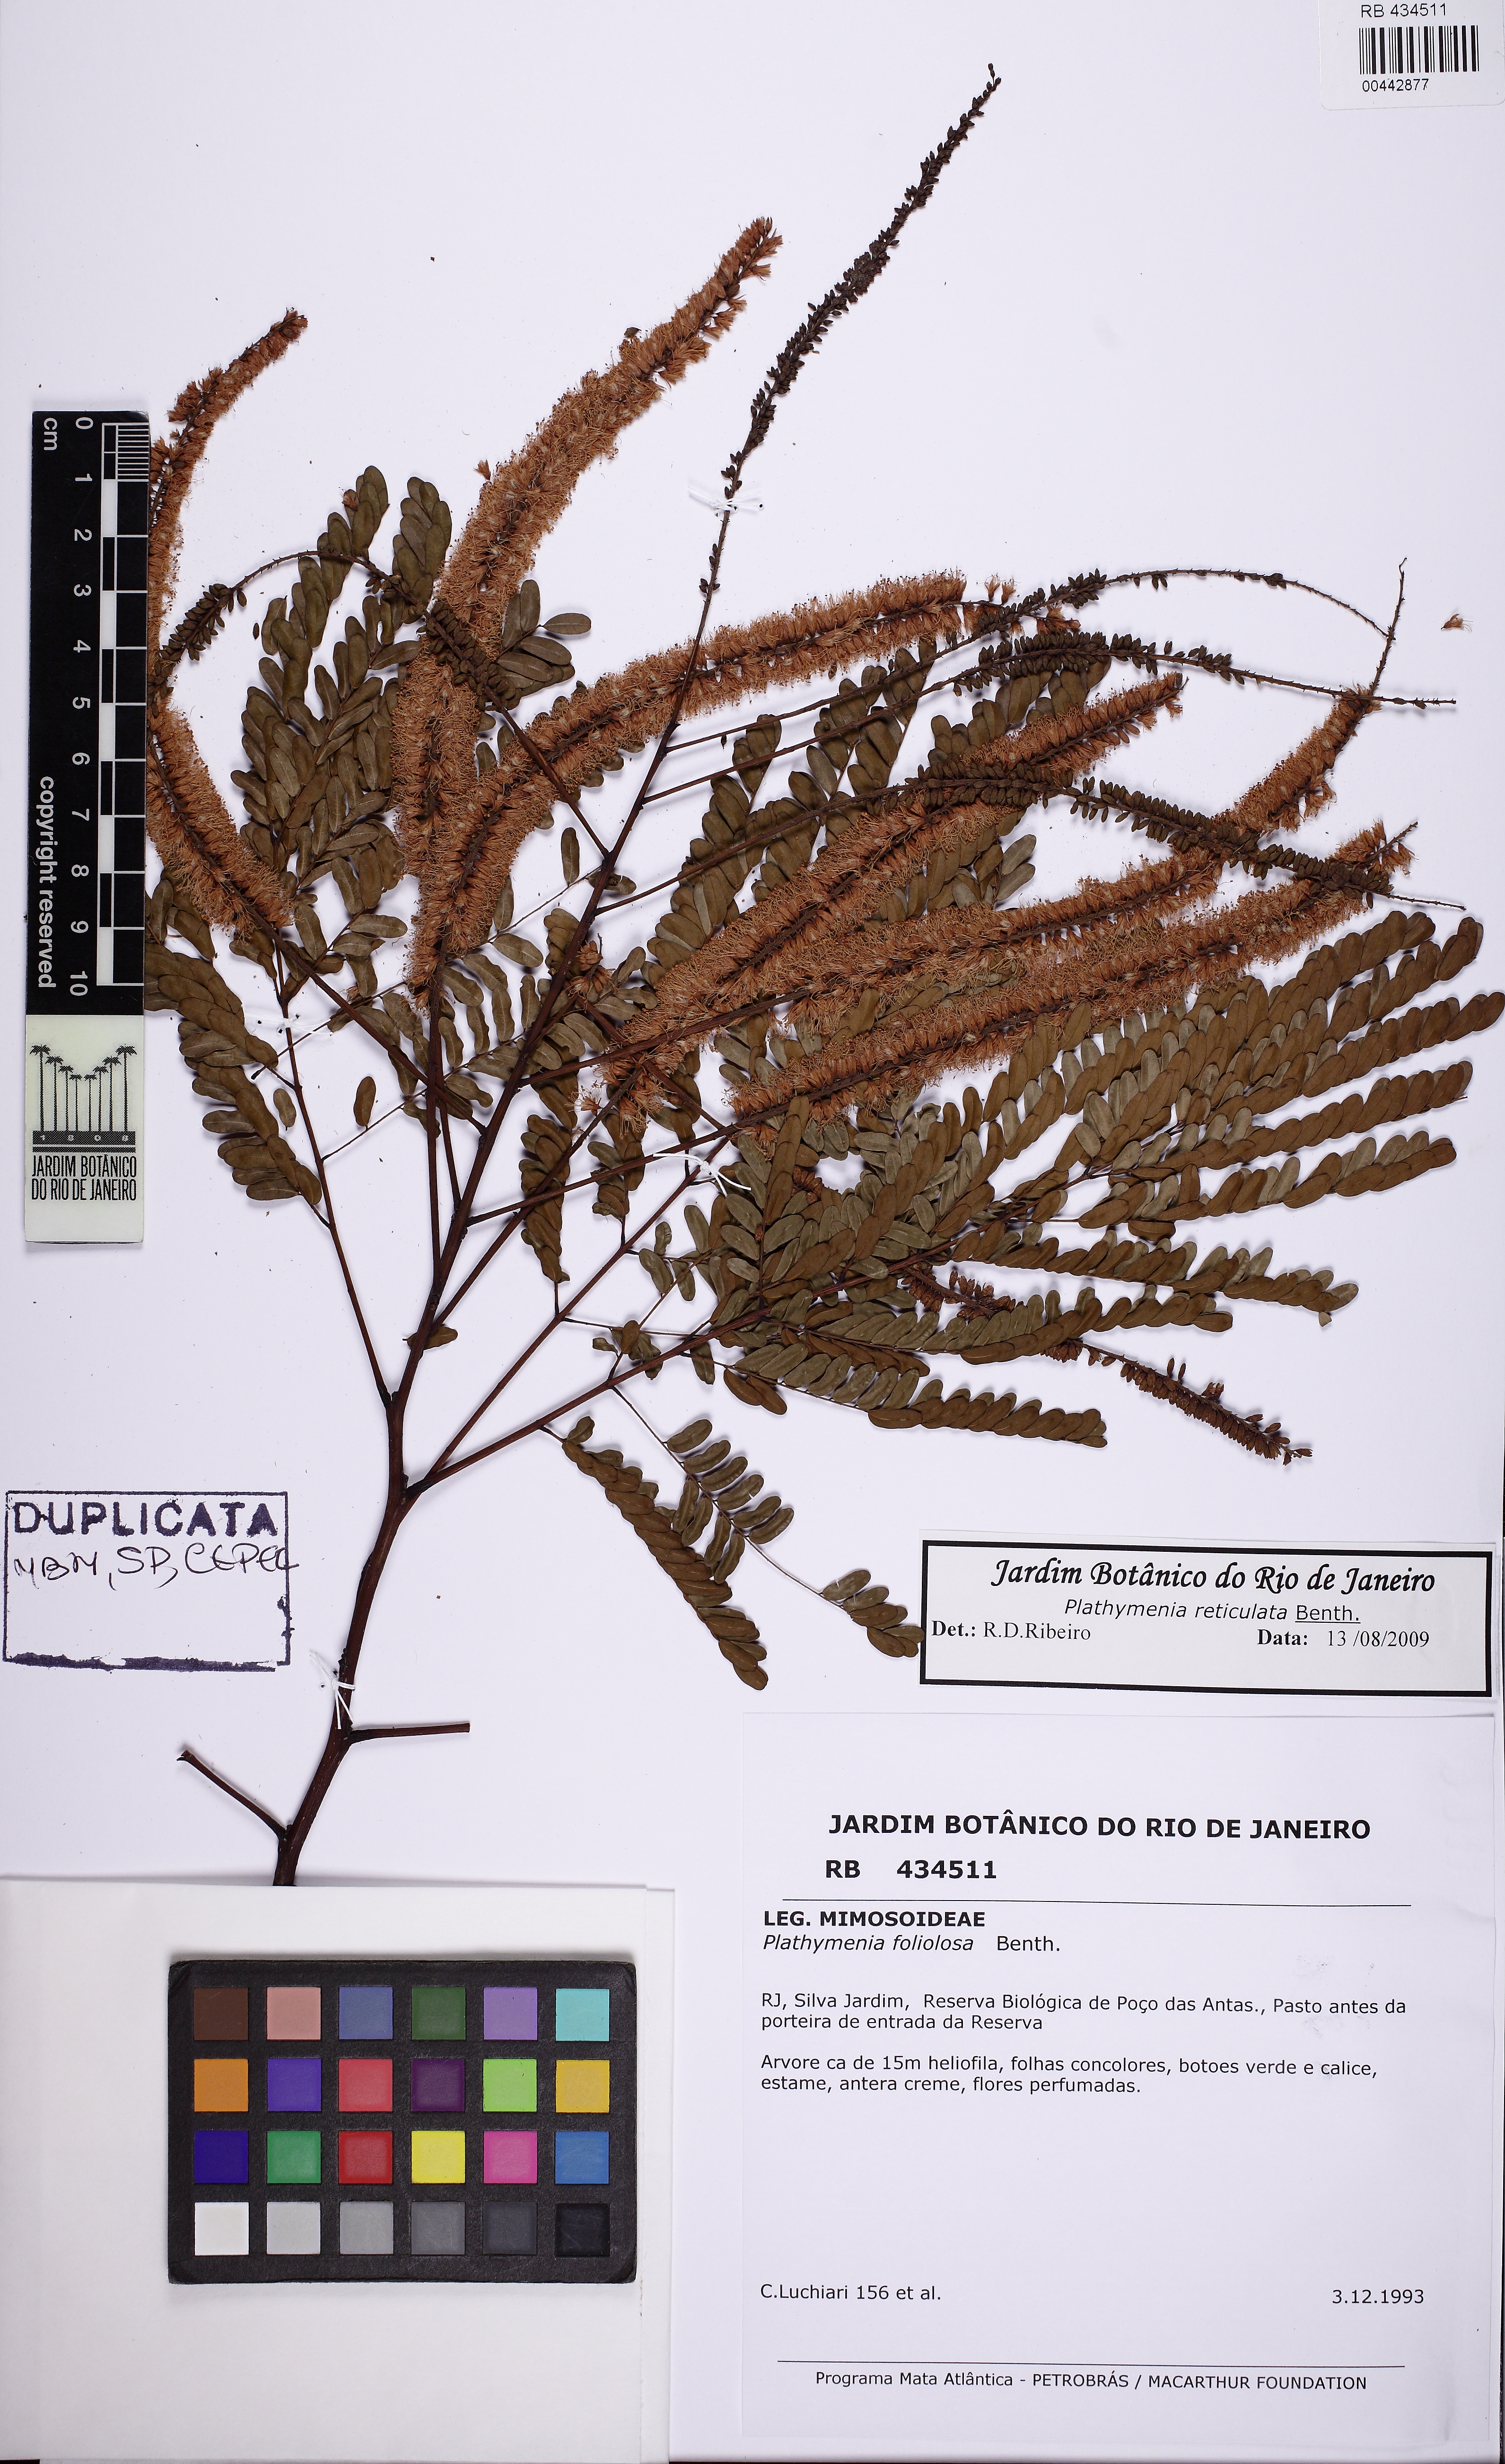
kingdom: Plantae
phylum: Tracheophyta
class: Magnoliopsida
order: Fabales
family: Fabaceae
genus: Plathymenia
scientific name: Plathymenia reticulata
